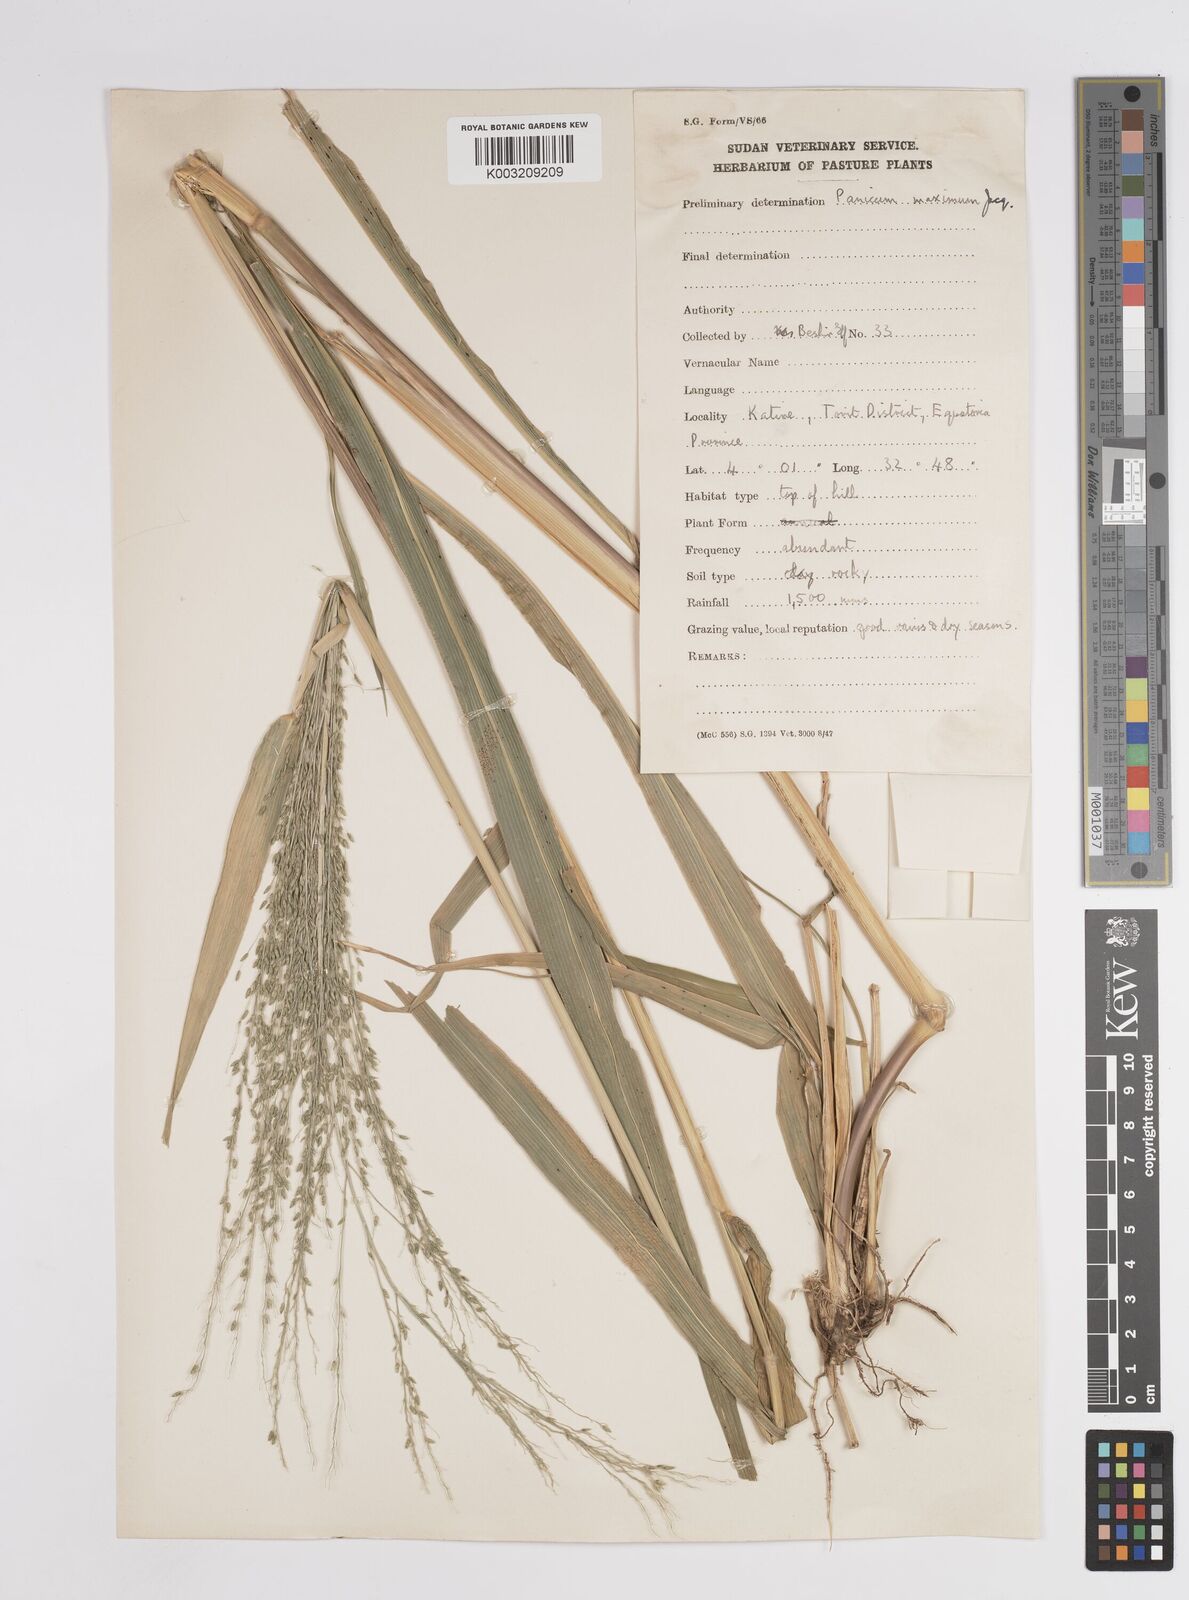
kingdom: Plantae
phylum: Tracheophyta
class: Liliopsida
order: Poales
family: Poaceae
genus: Megathyrsus
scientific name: Megathyrsus maximus
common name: Guineagrass
